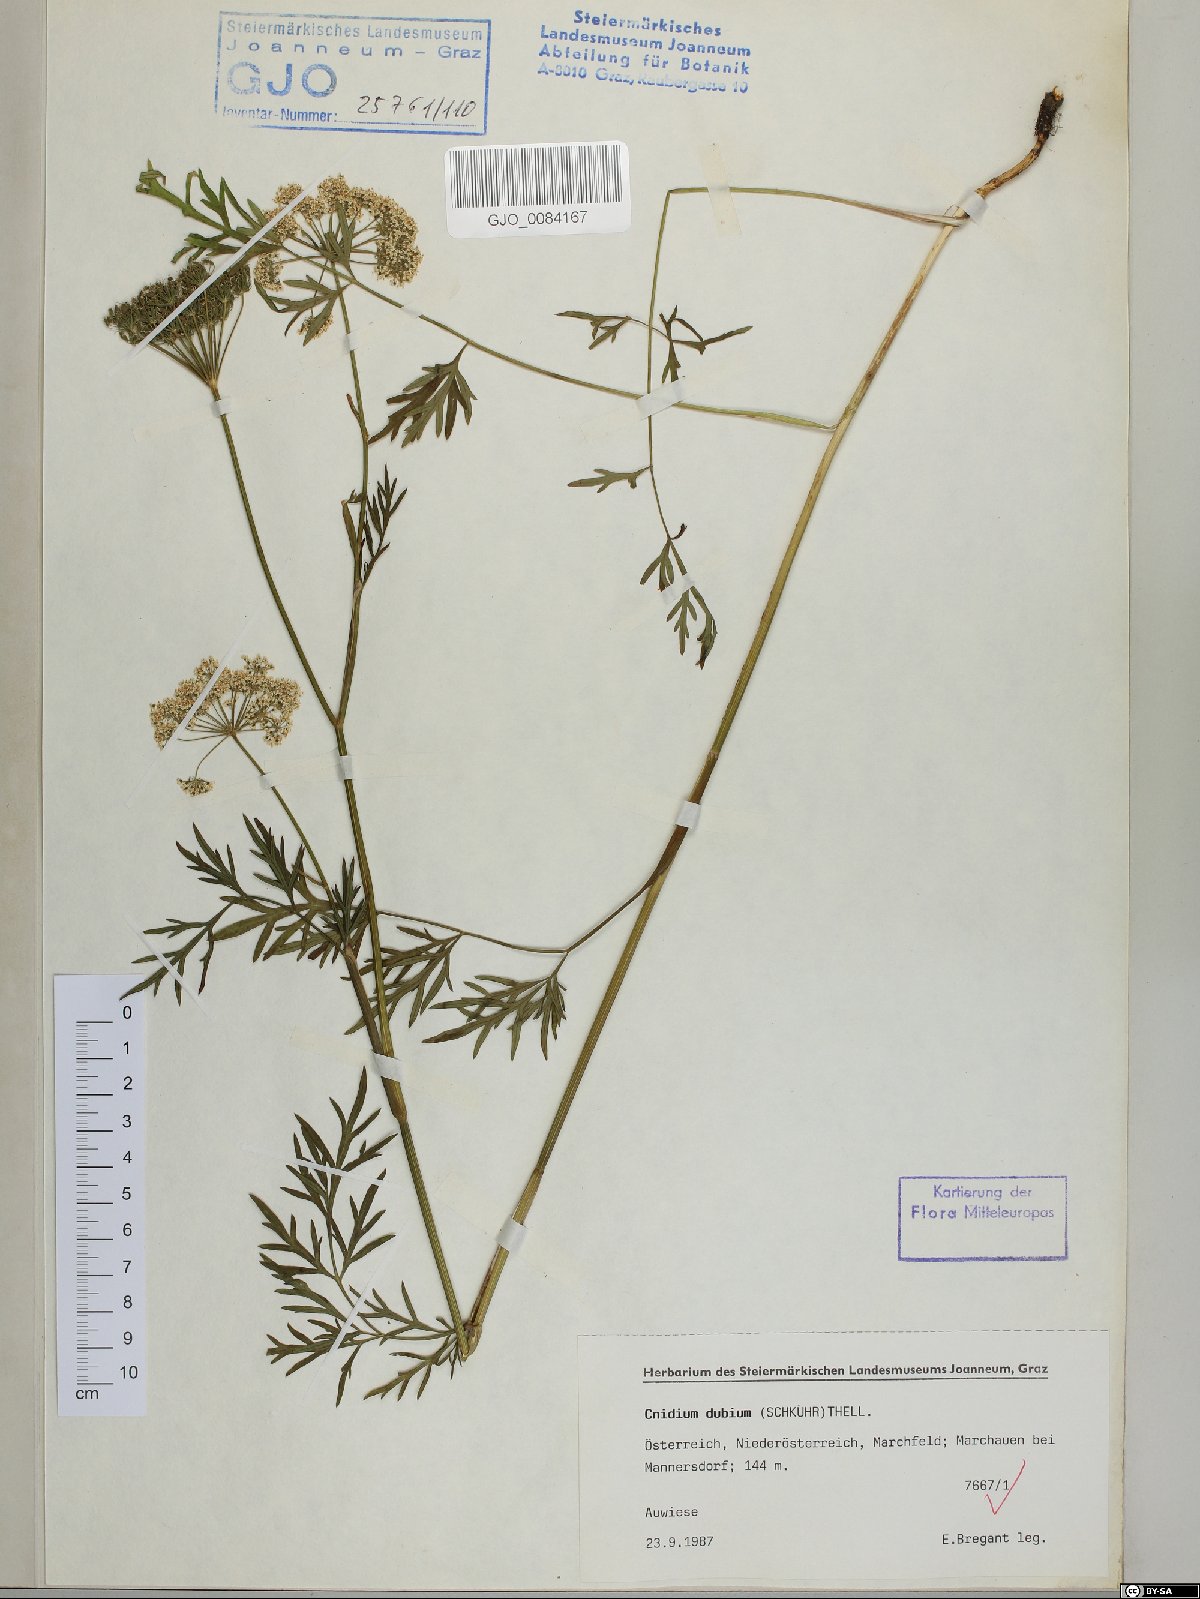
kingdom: Plantae
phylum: Tracheophyta
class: Magnoliopsida
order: Apiales
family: Apiaceae
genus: Kadenia
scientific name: Kadenia dubia
